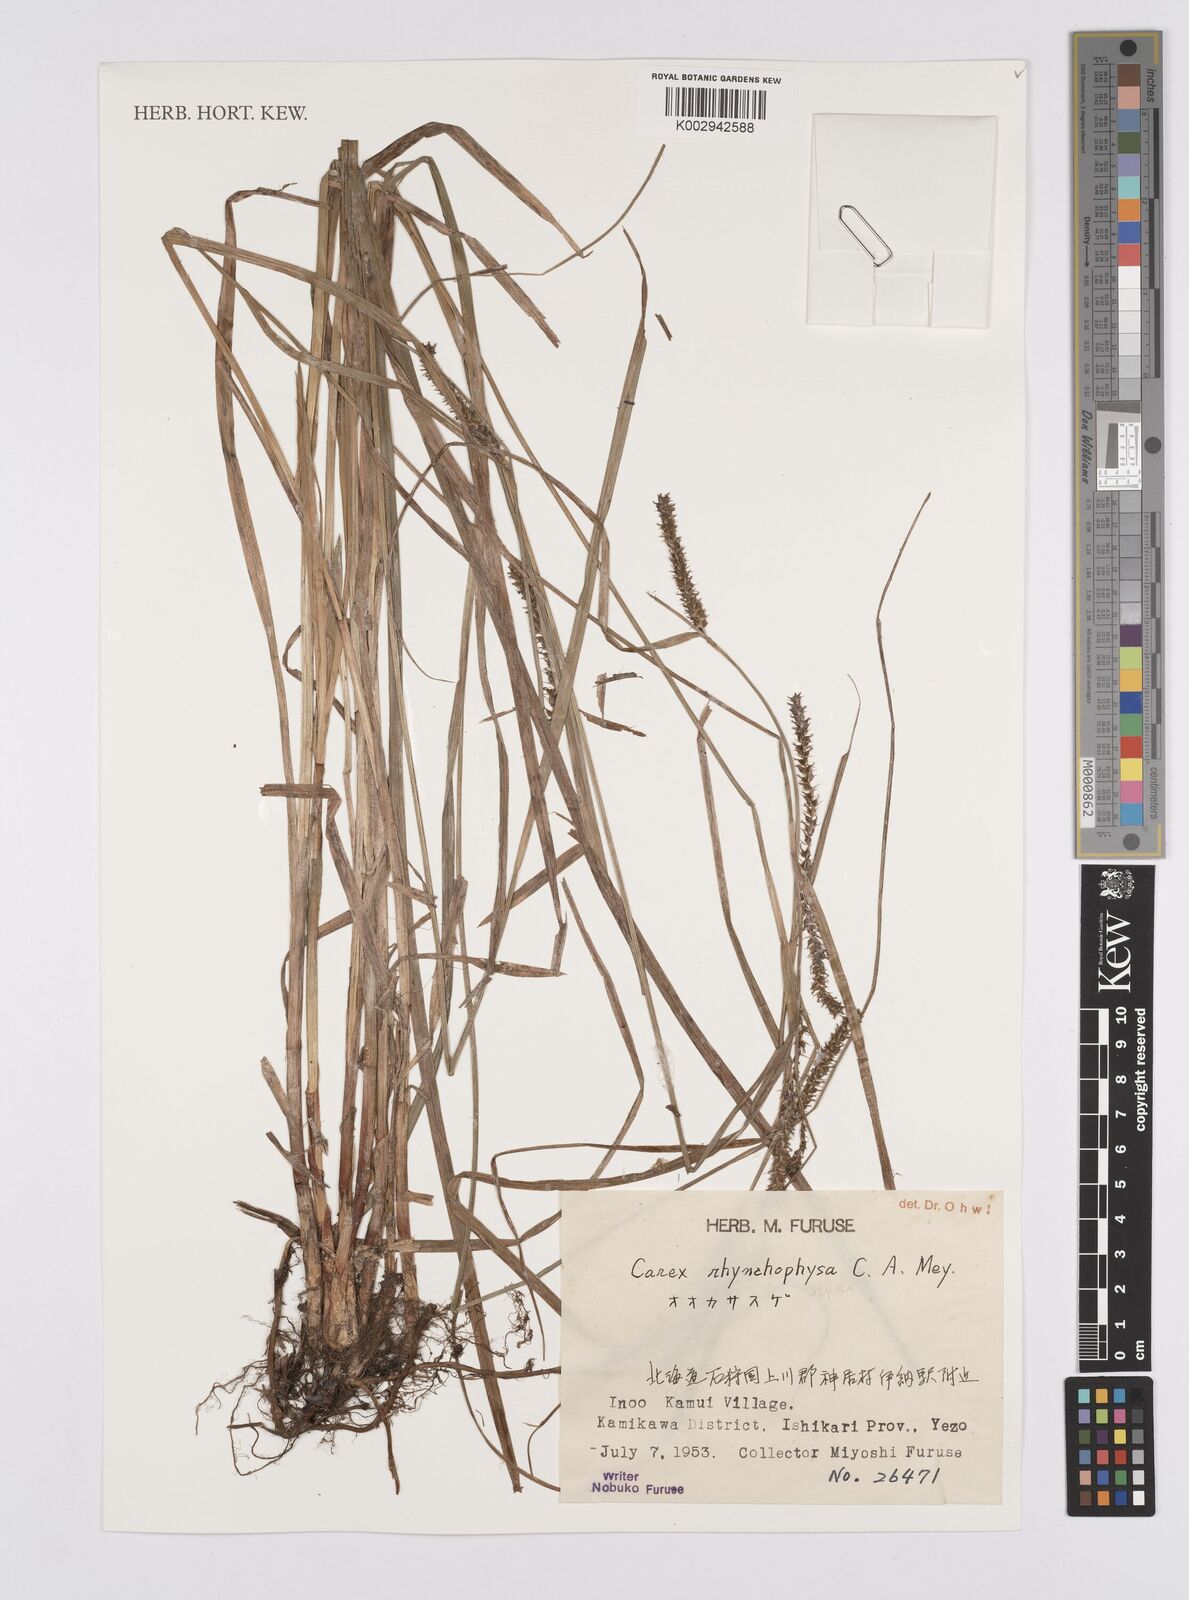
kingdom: Plantae
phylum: Tracheophyta
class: Liliopsida
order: Poales
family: Cyperaceae
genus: Carex
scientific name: Carex utriculata
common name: Beaked sedge
